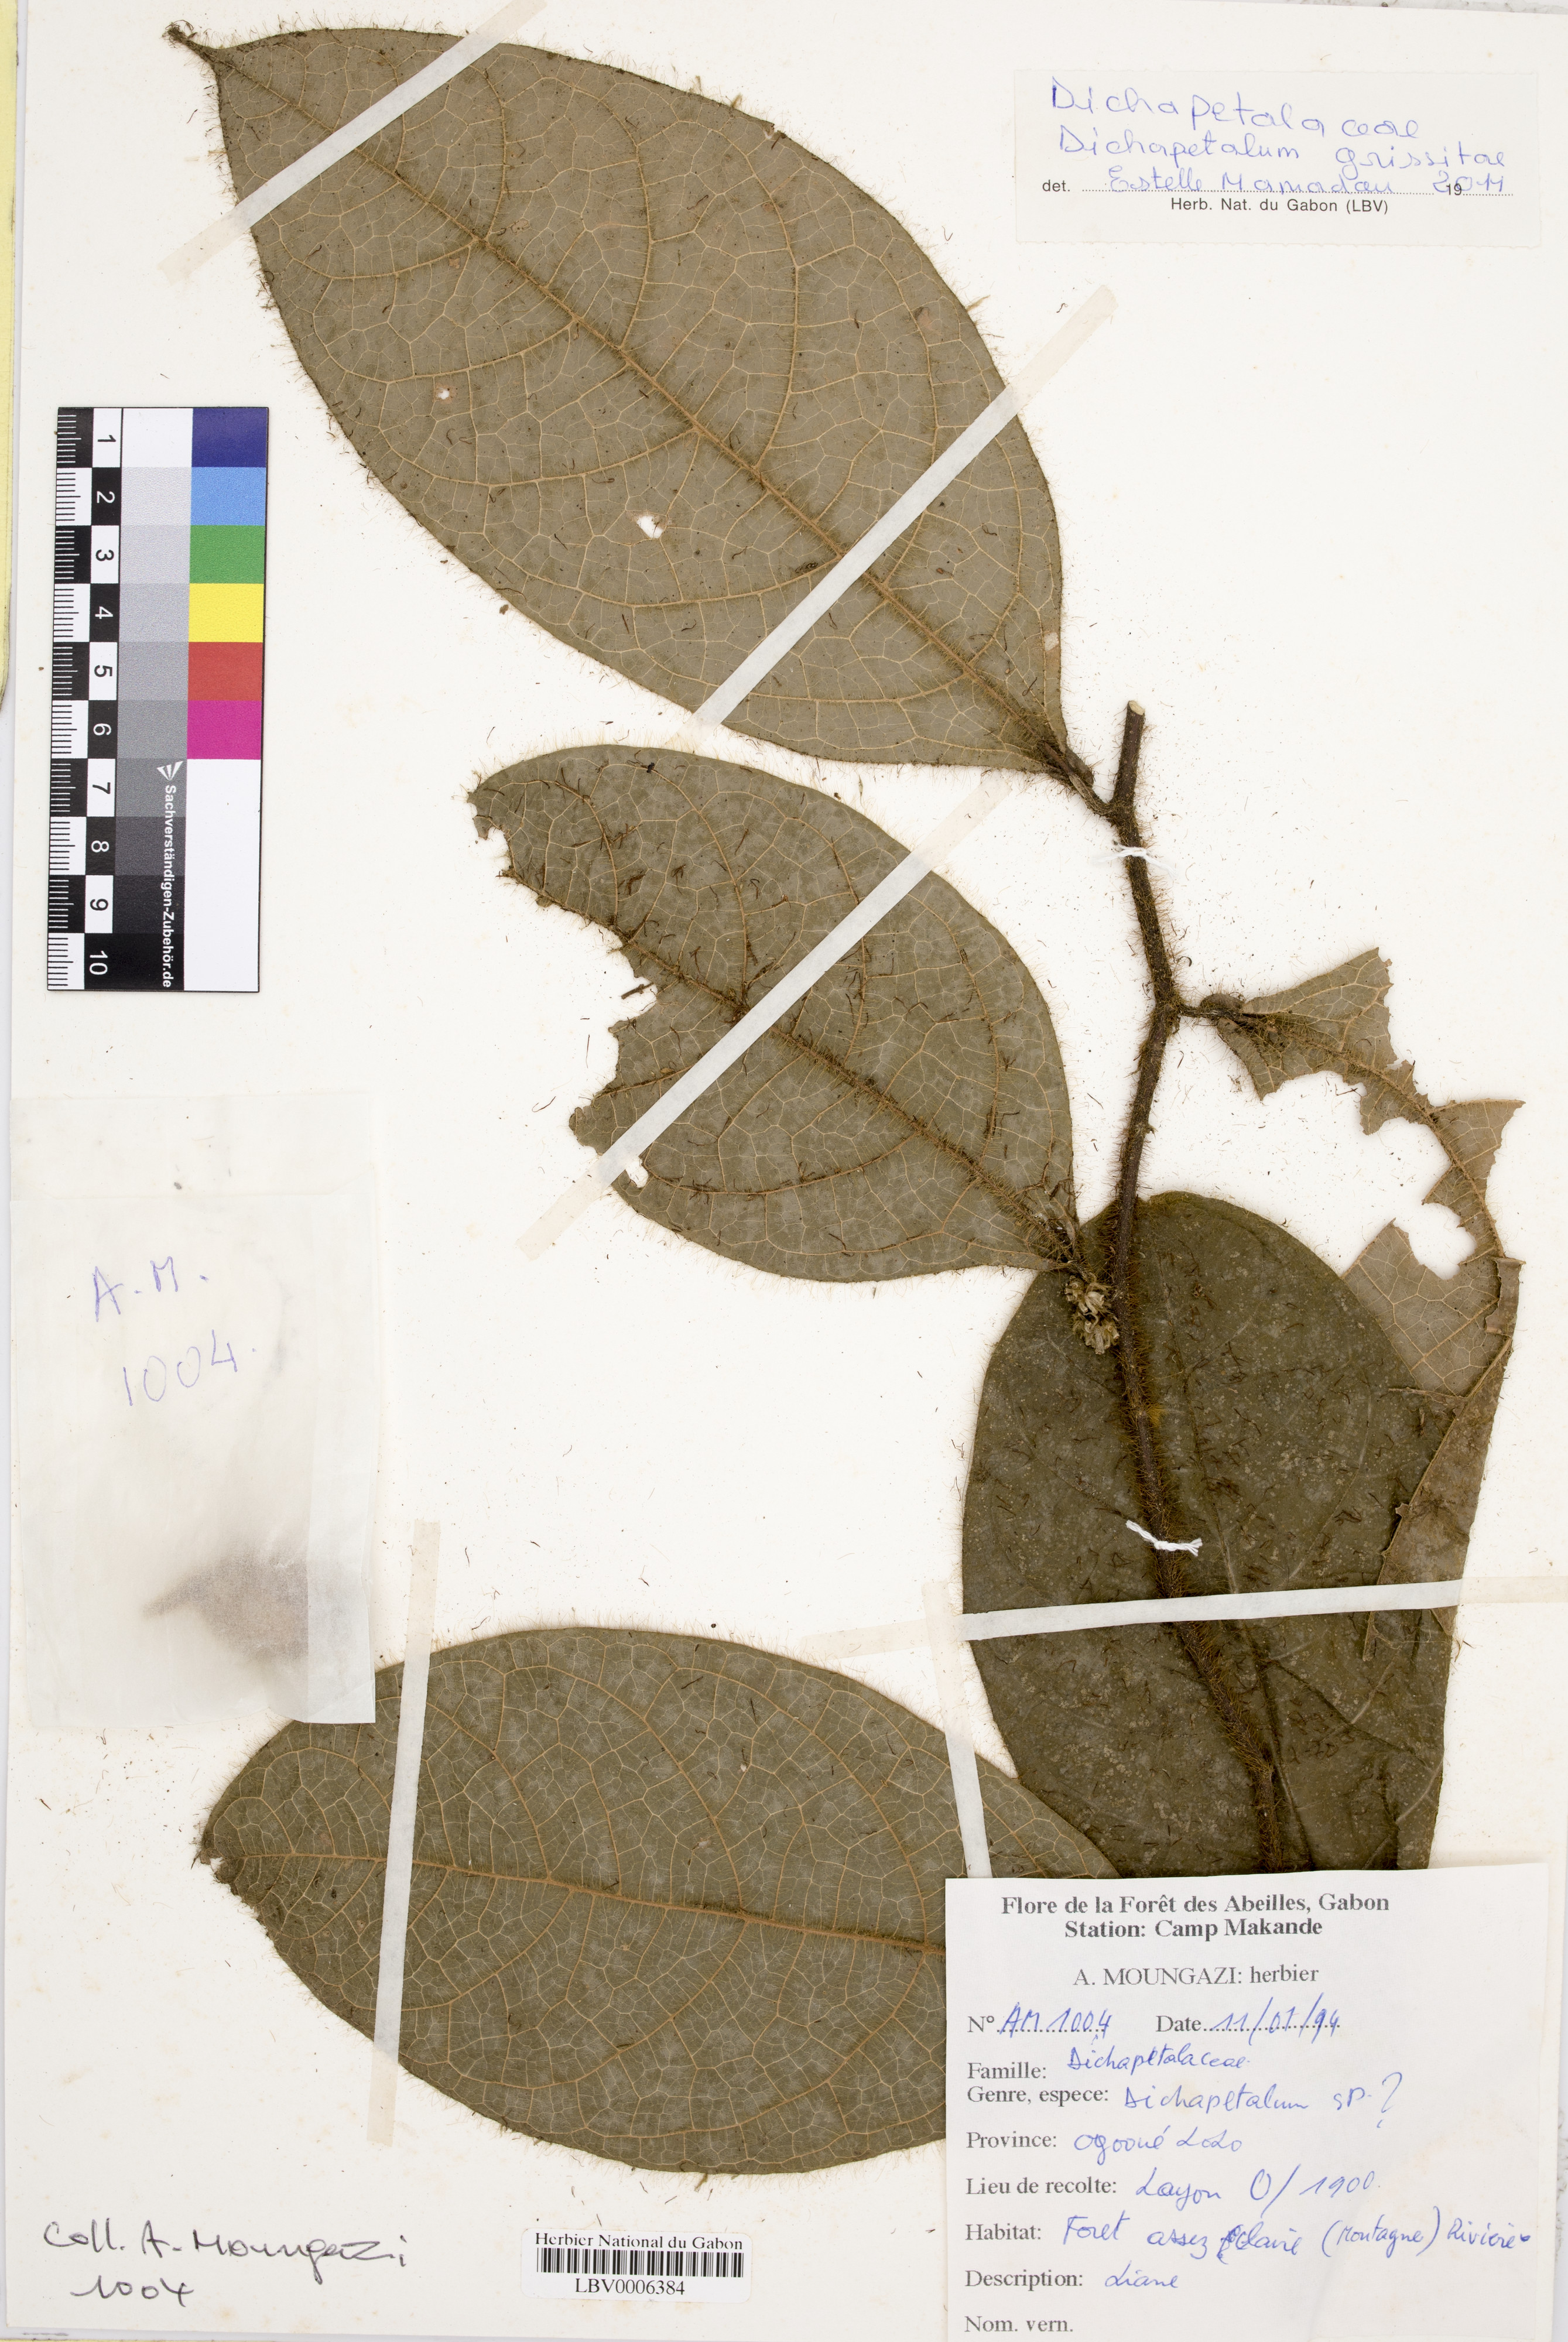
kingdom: Plantae
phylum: Tracheophyta
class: Magnoliopsida
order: Malpighiales
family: Dichapetalaceae
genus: Dichapetalum
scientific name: Dichapetalum
